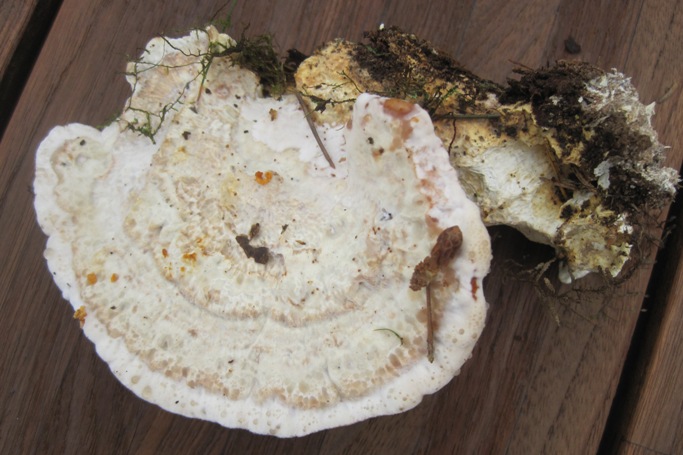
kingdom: Fungi
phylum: Basidiomycota
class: Agaricomycetes
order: Polyporales
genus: Calcipostia
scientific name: Calcipostia guttulata
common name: dråbe-kødporesvamp
